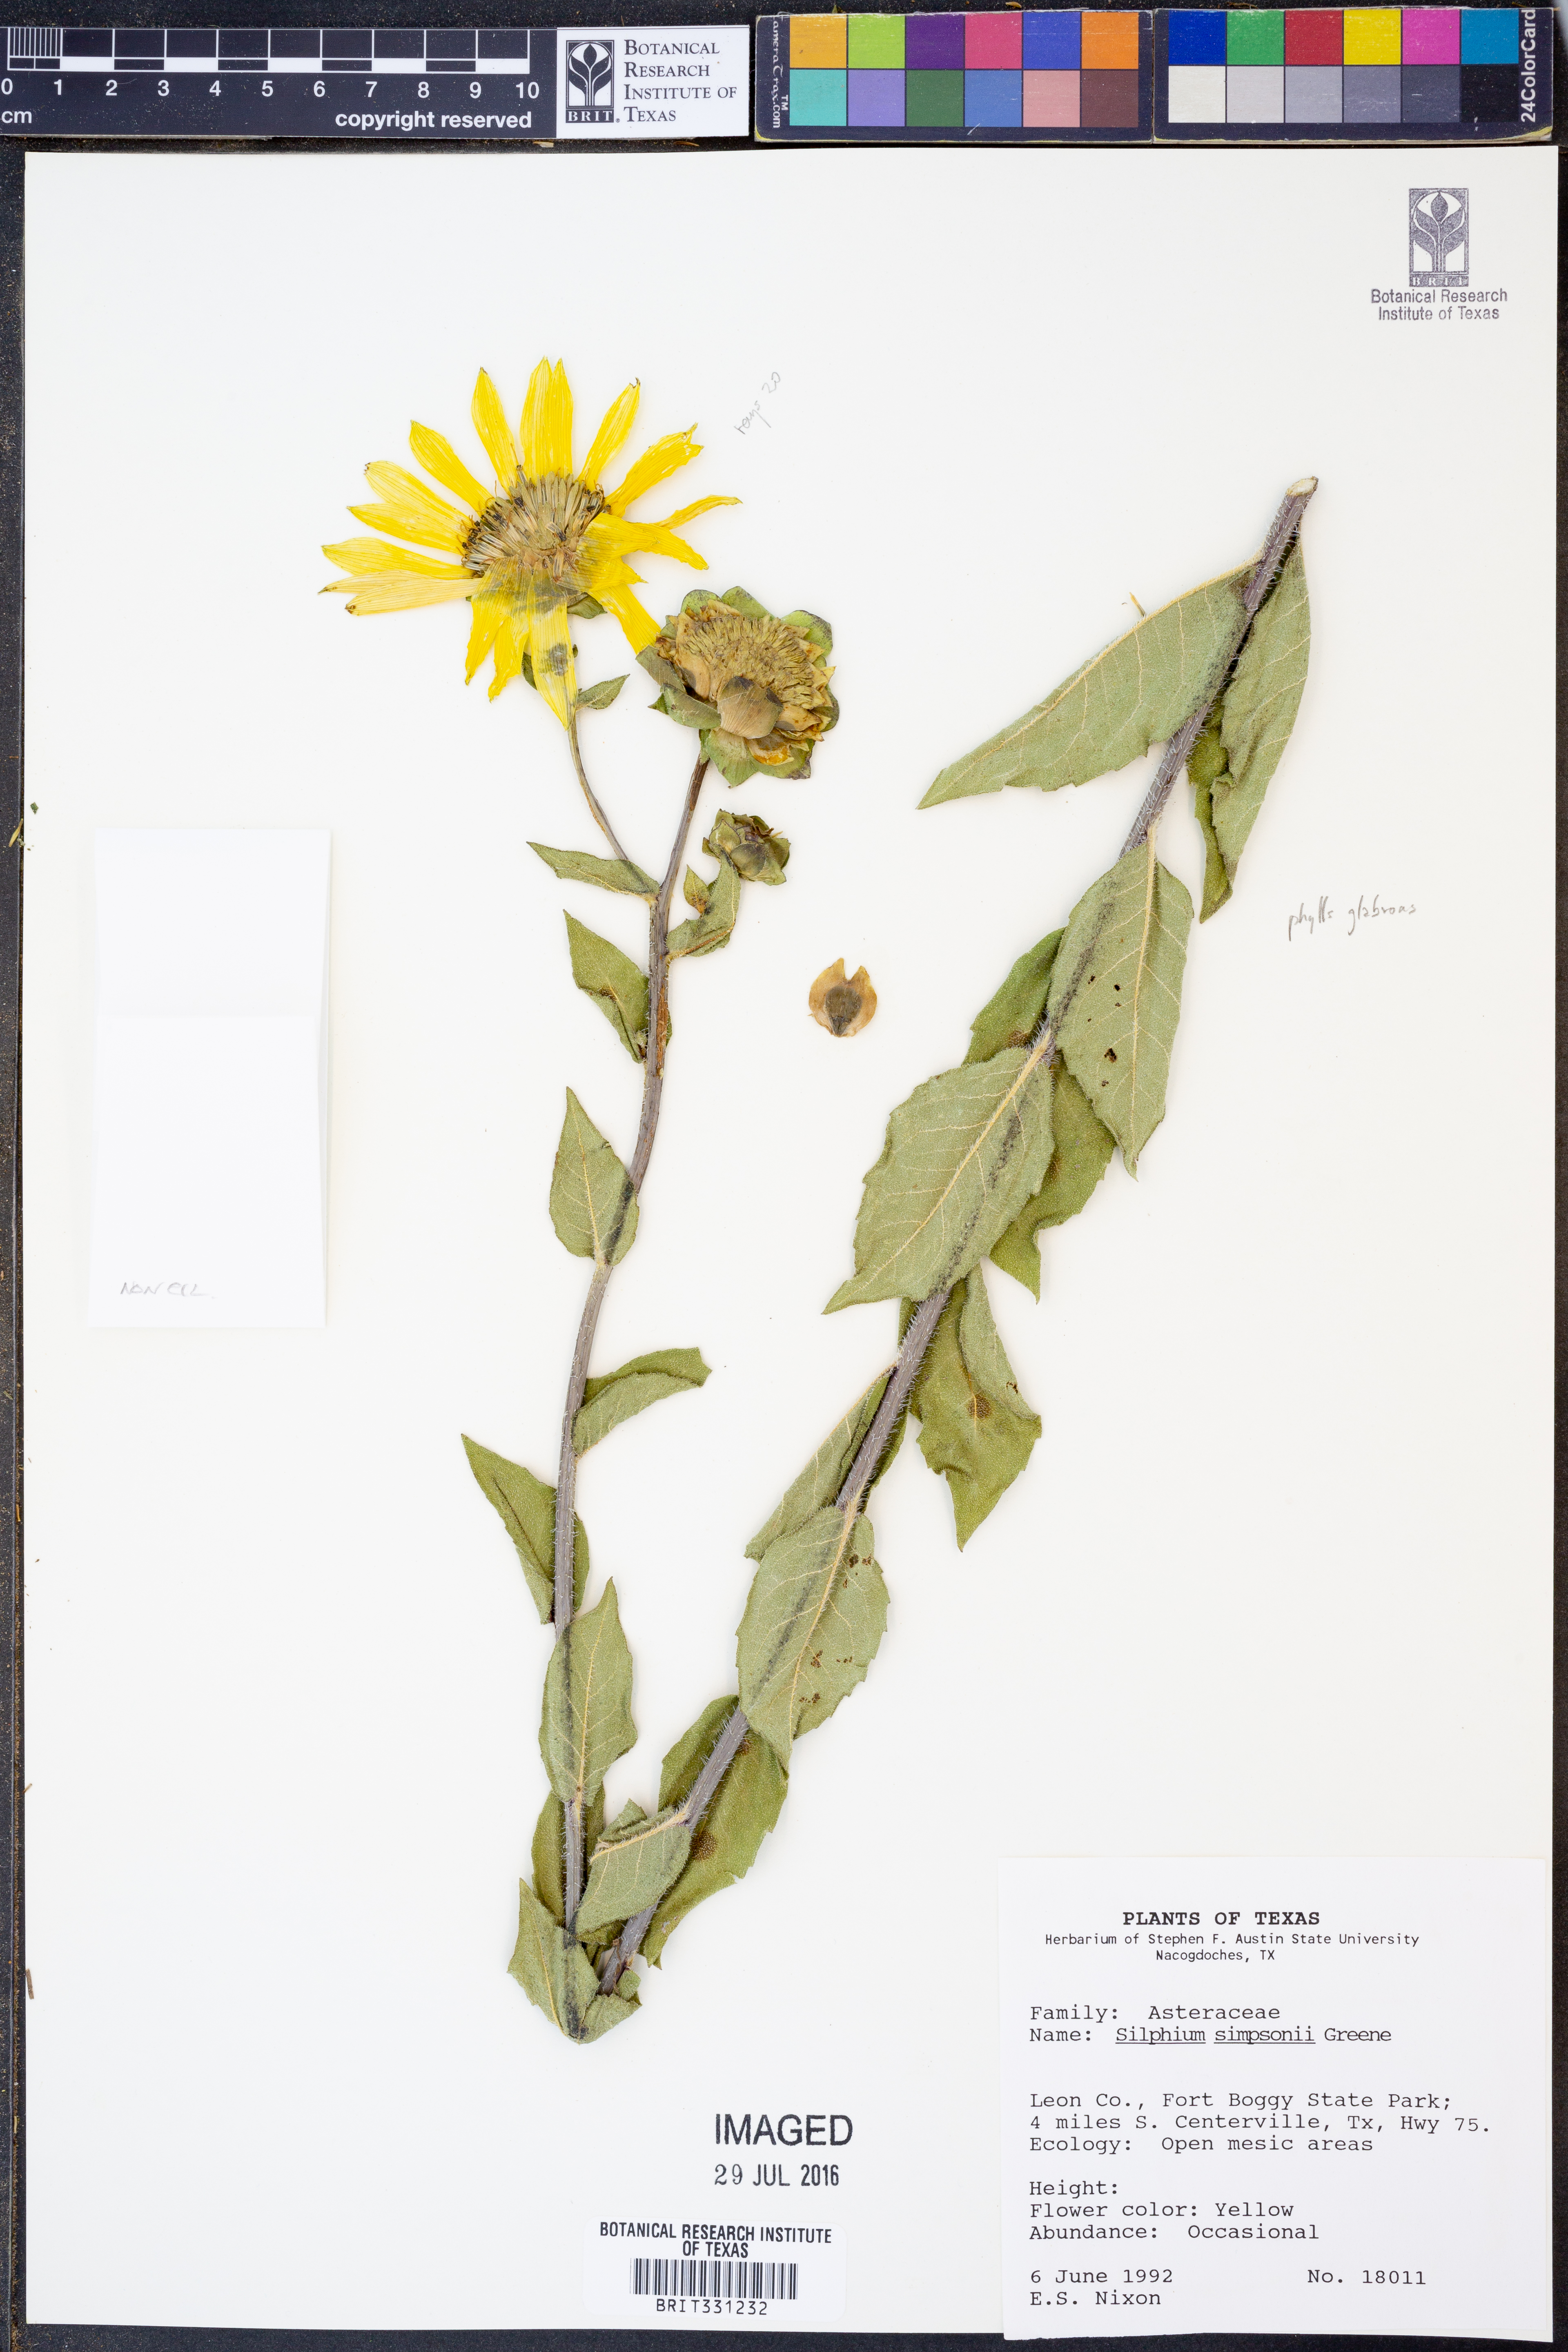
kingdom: Plantae
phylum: Tracheophyta
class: Magnoliopsida
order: Asterales
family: Asteraceae
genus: Silphium
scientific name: Silphium asteriscus
